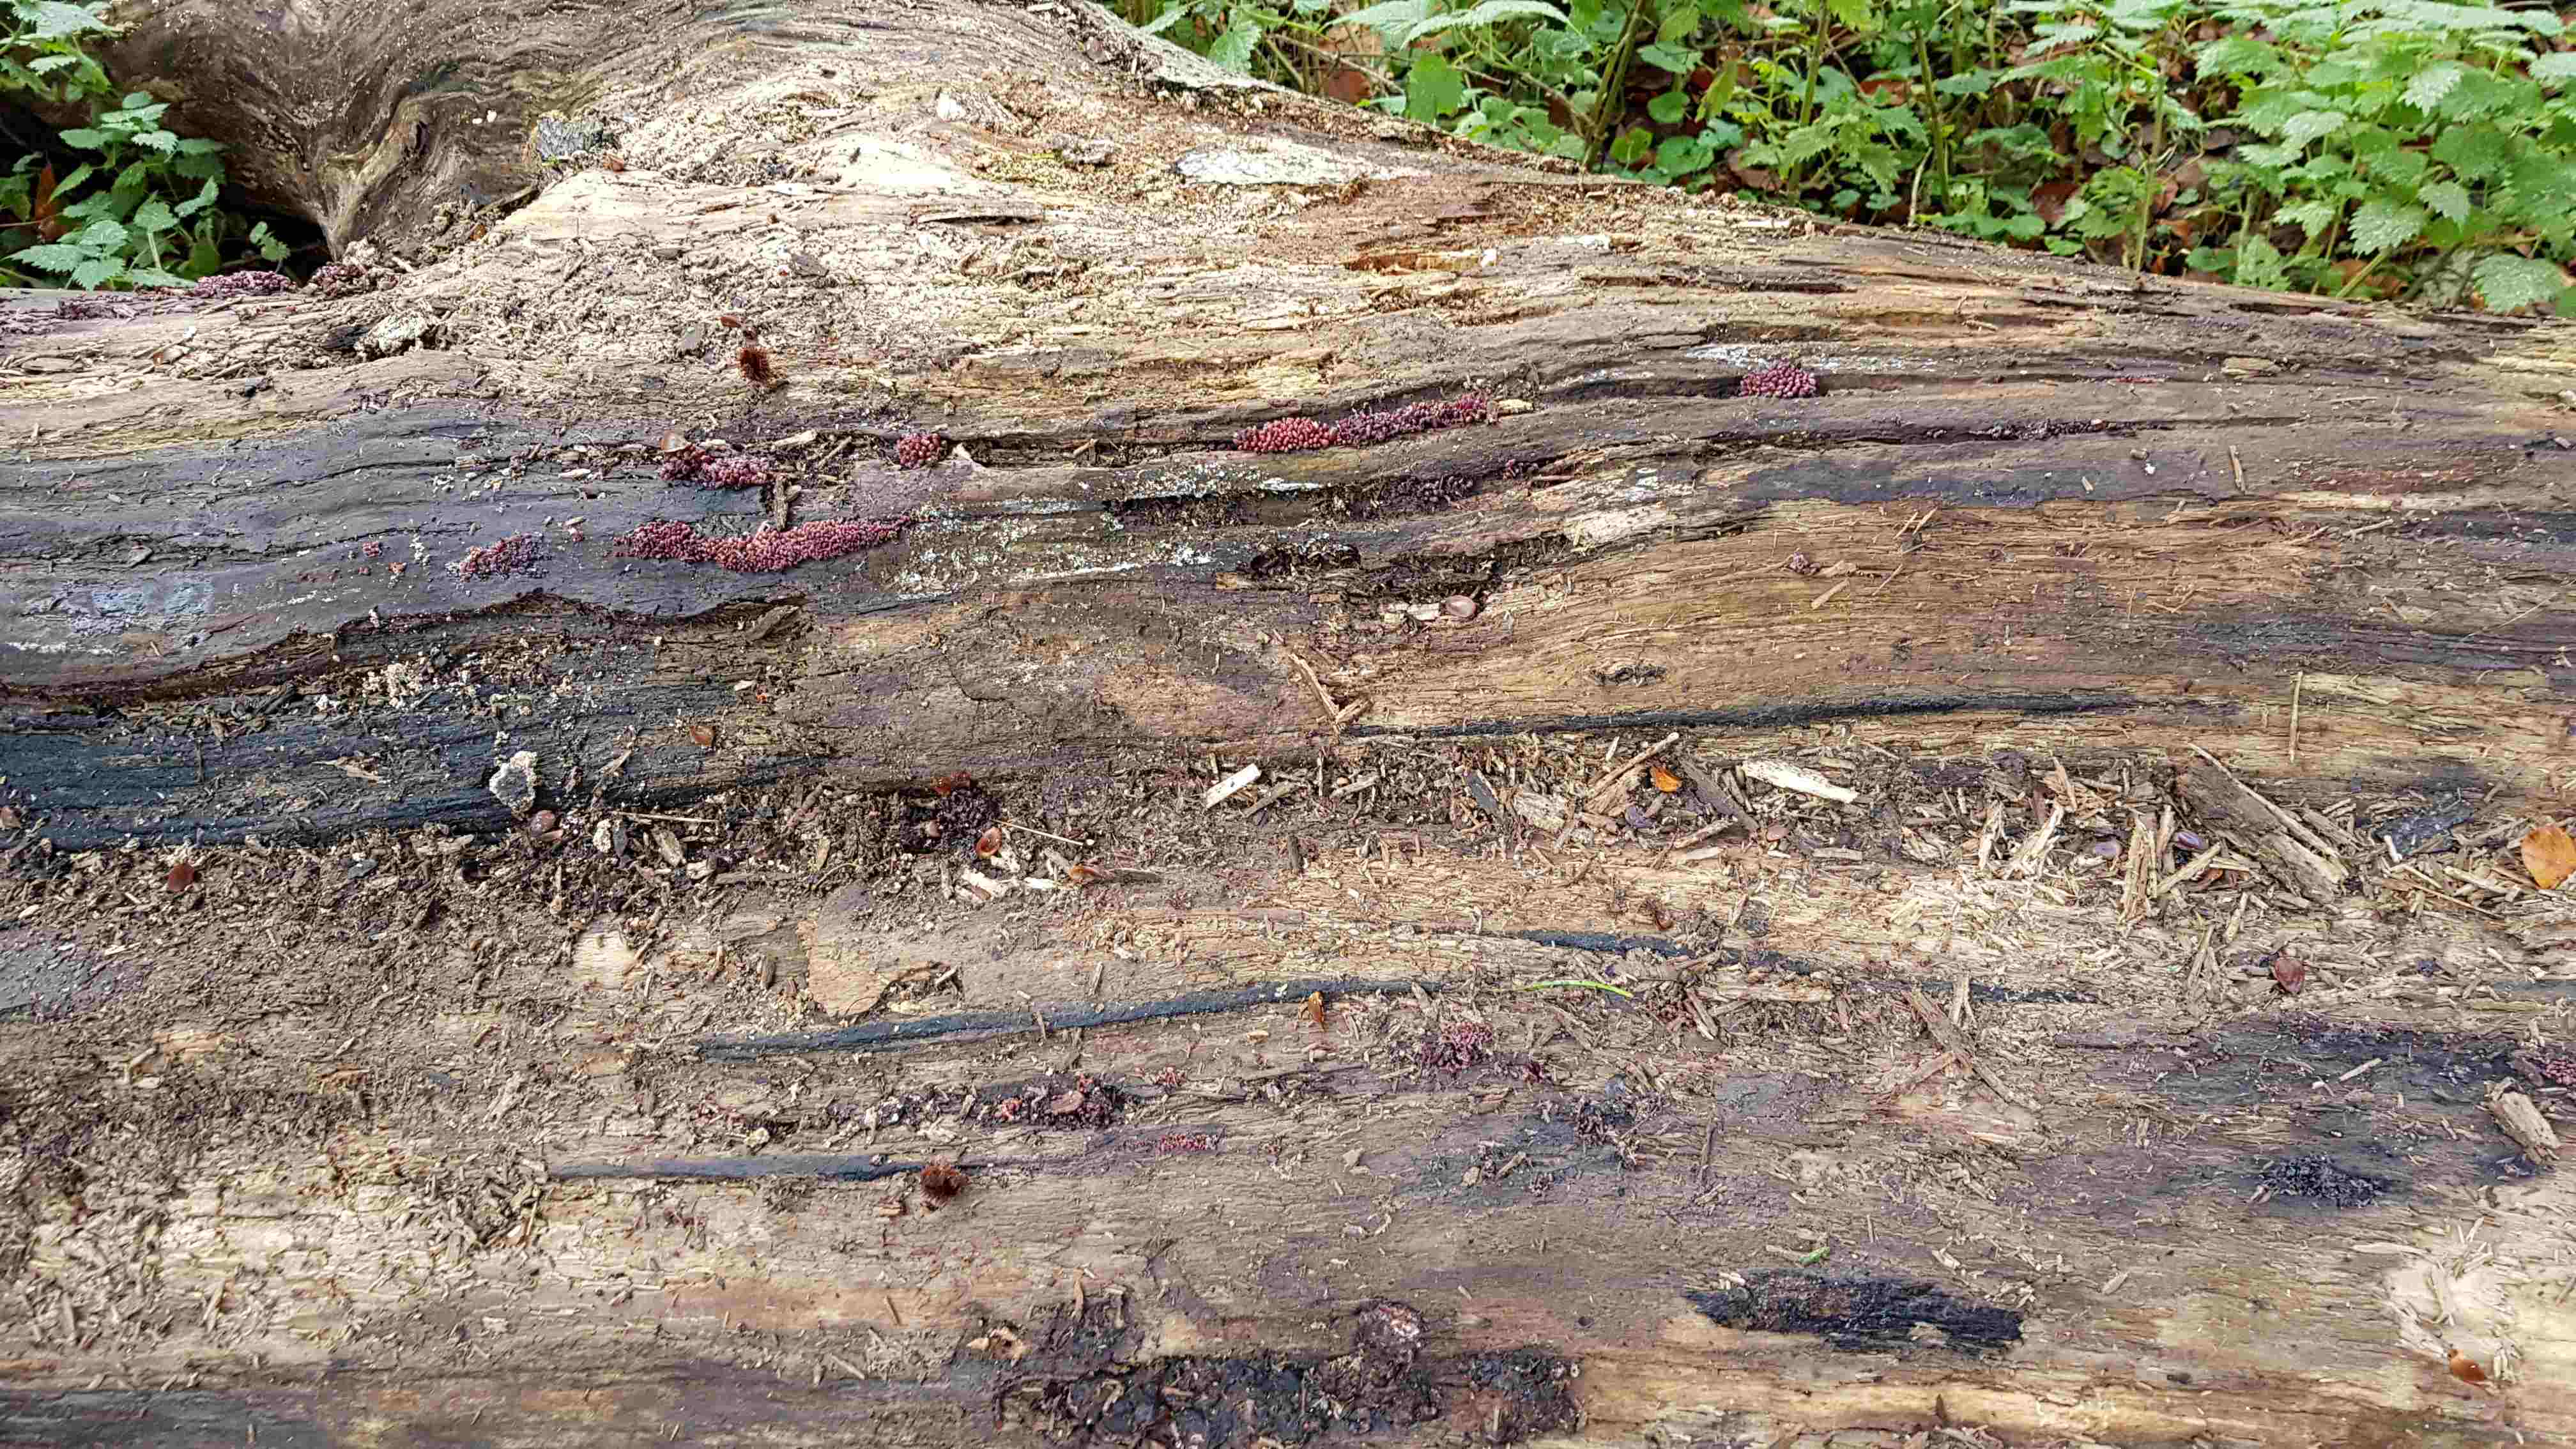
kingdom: Fungi
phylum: Ascomycota
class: Leotiomycetes
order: Helotiales
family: Gelatinodiscaceae
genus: Ascocoryne
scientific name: Ascocoryne sarcoides
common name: rødlilla sejskive
